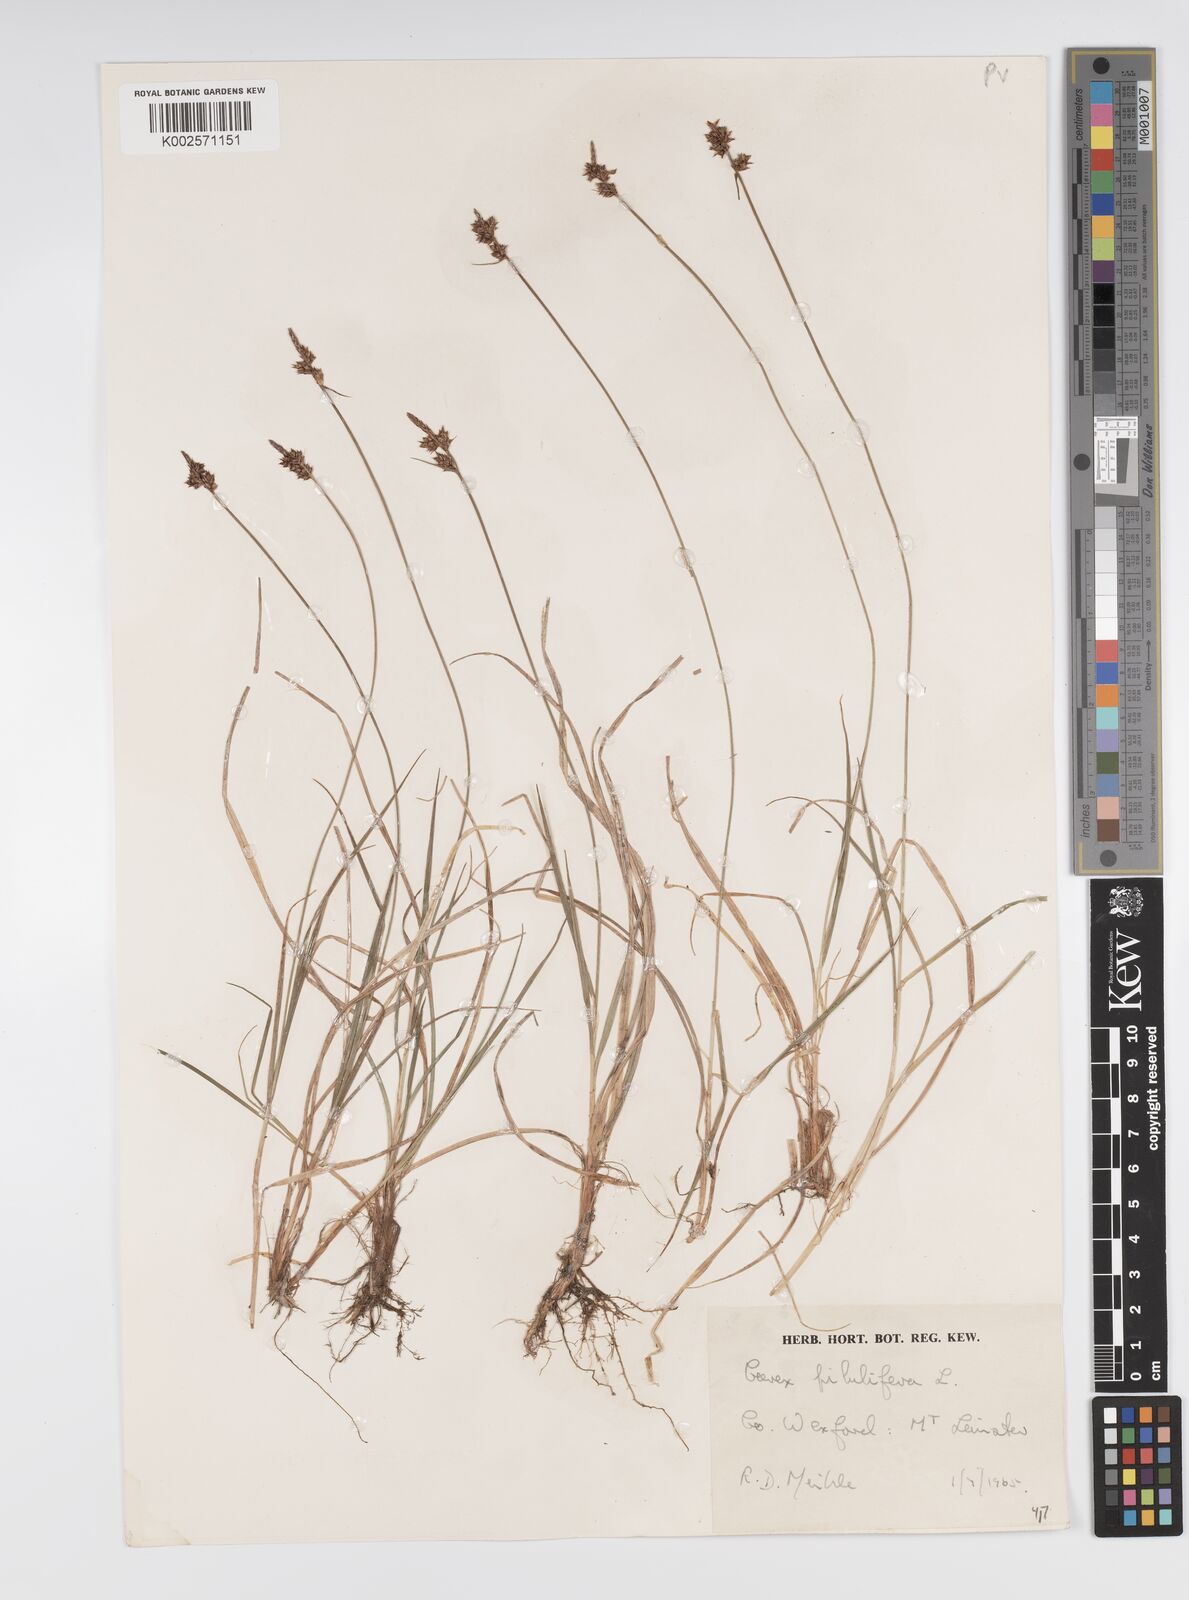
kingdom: Plantae
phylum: Tracheophyta
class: Liliopsida
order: Poales
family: Cyperaceae
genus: Carex
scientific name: Carex pilulifera
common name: Pill sedge
